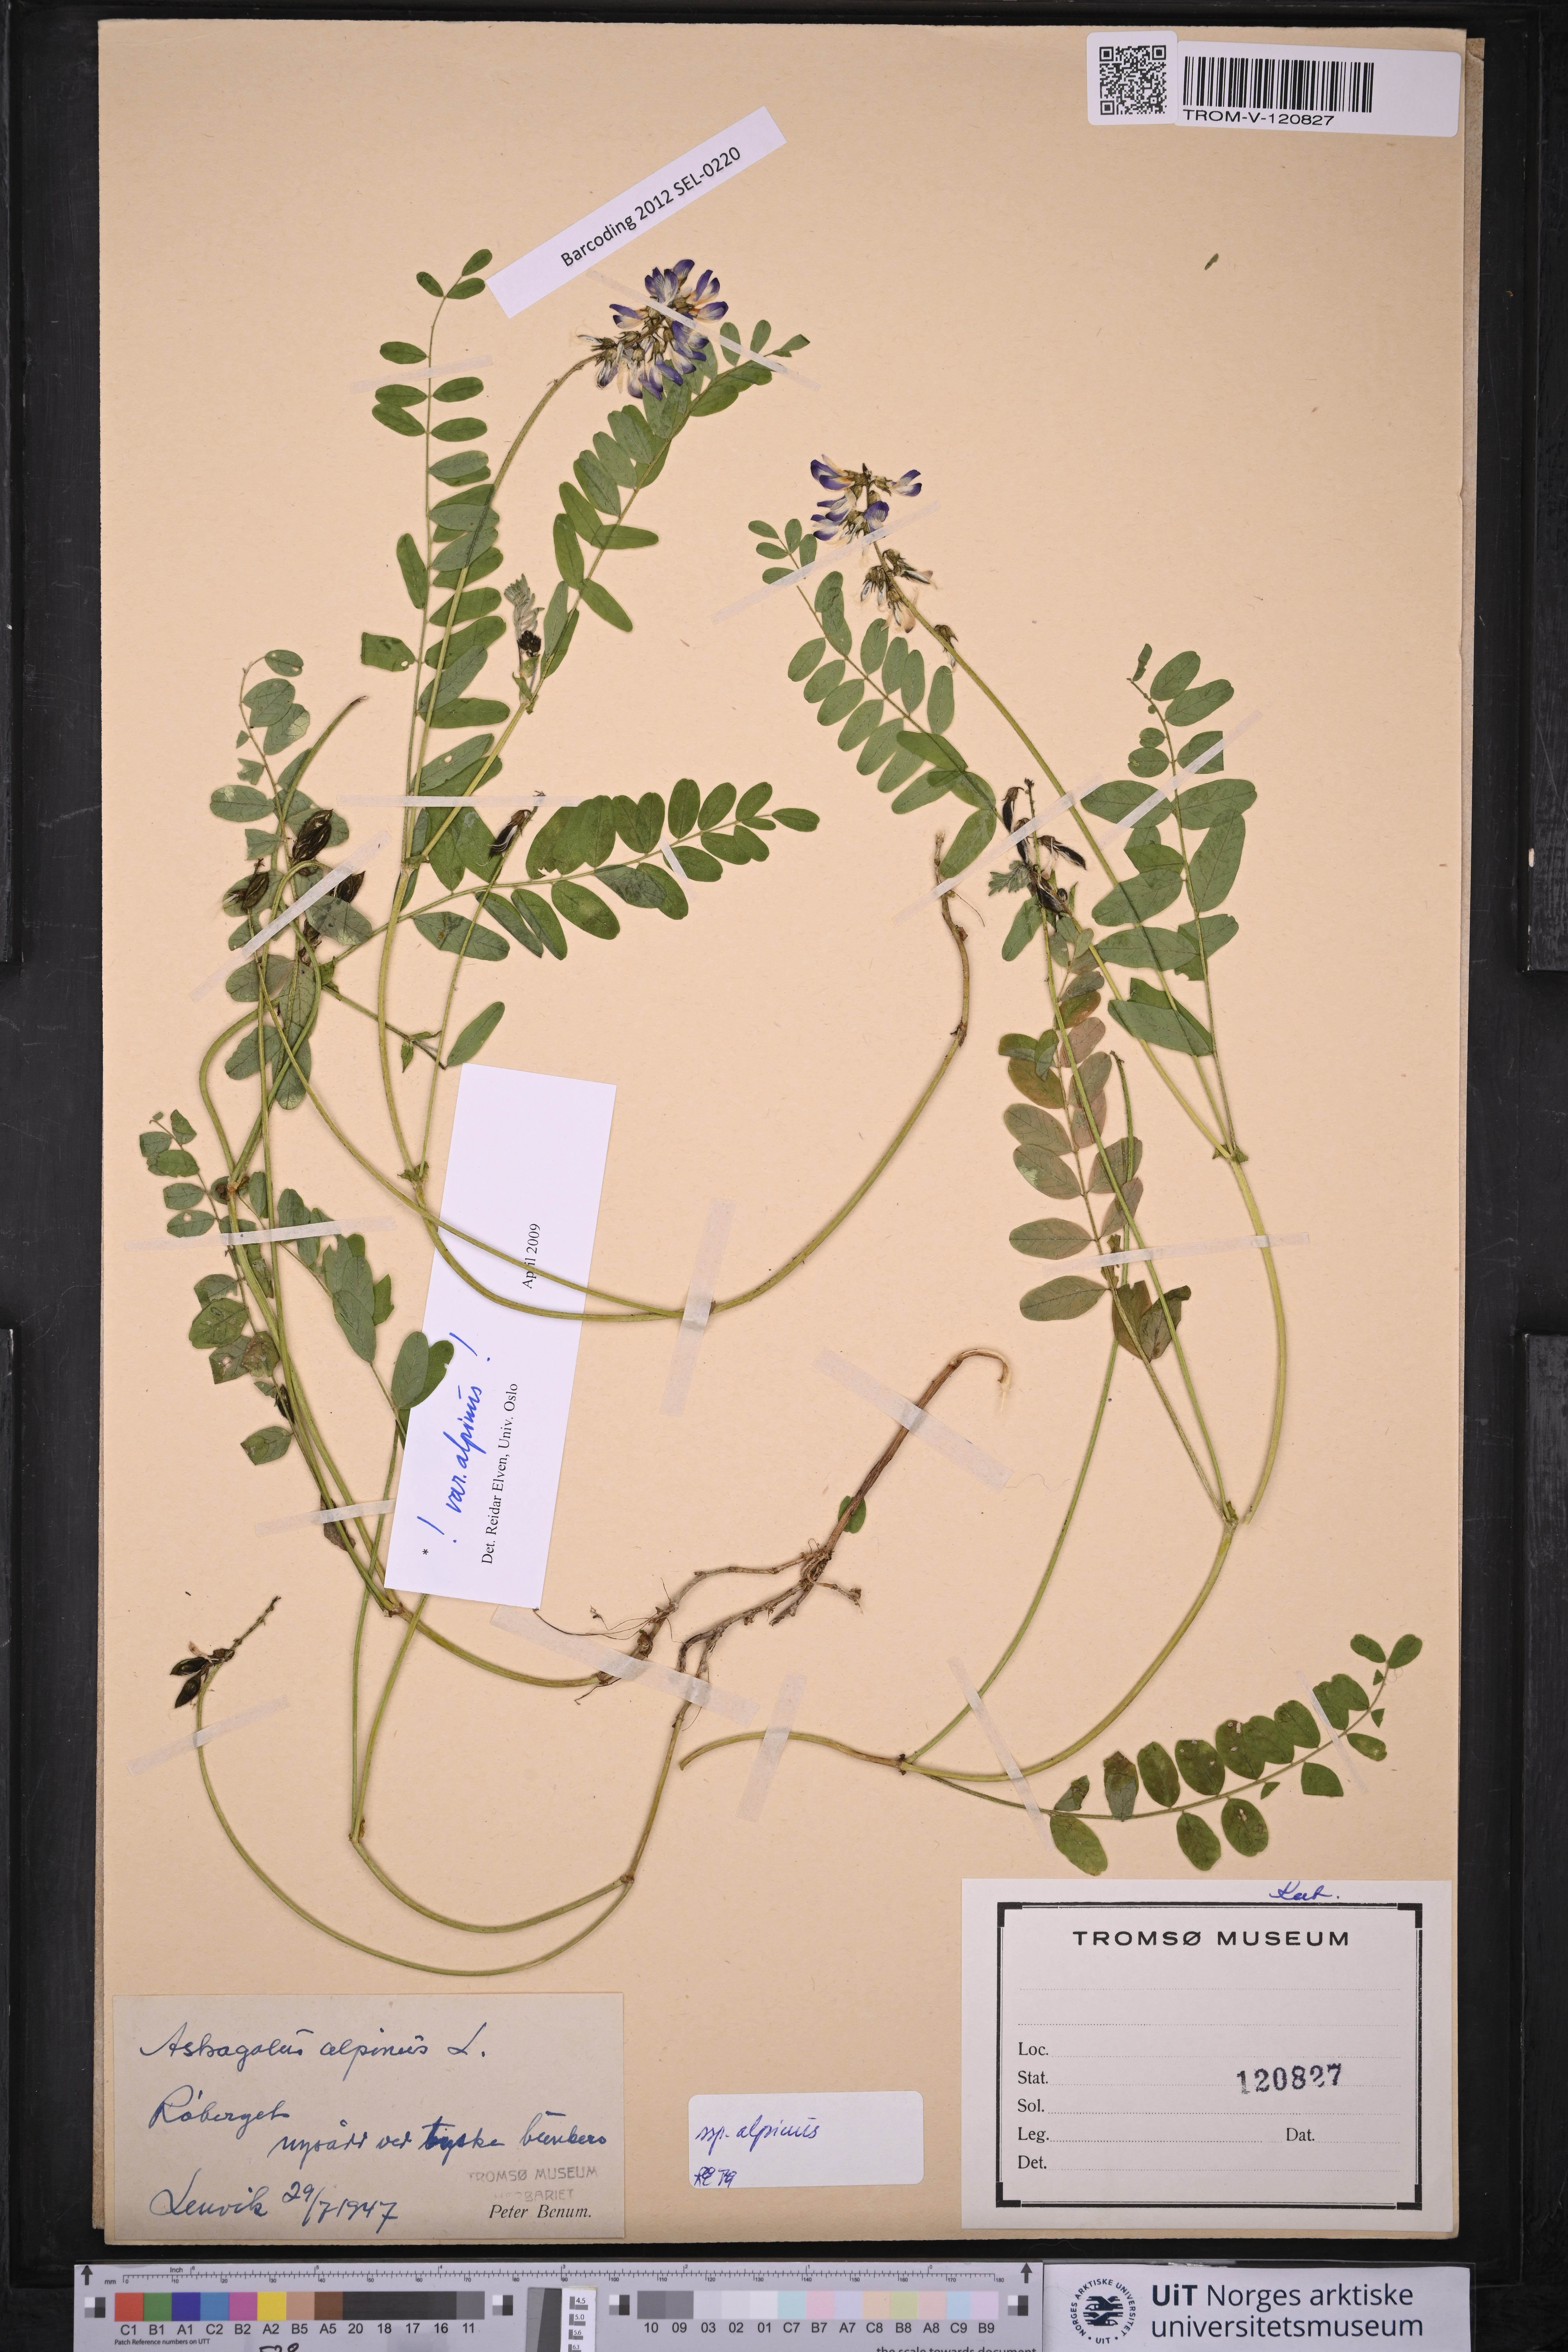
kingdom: Plantae
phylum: Tracheophyta
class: Magnoliopsida
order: Fabales
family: Fabaceae
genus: Astragalus
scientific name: Astragalus alpinus
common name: Alpine milk-vetch
